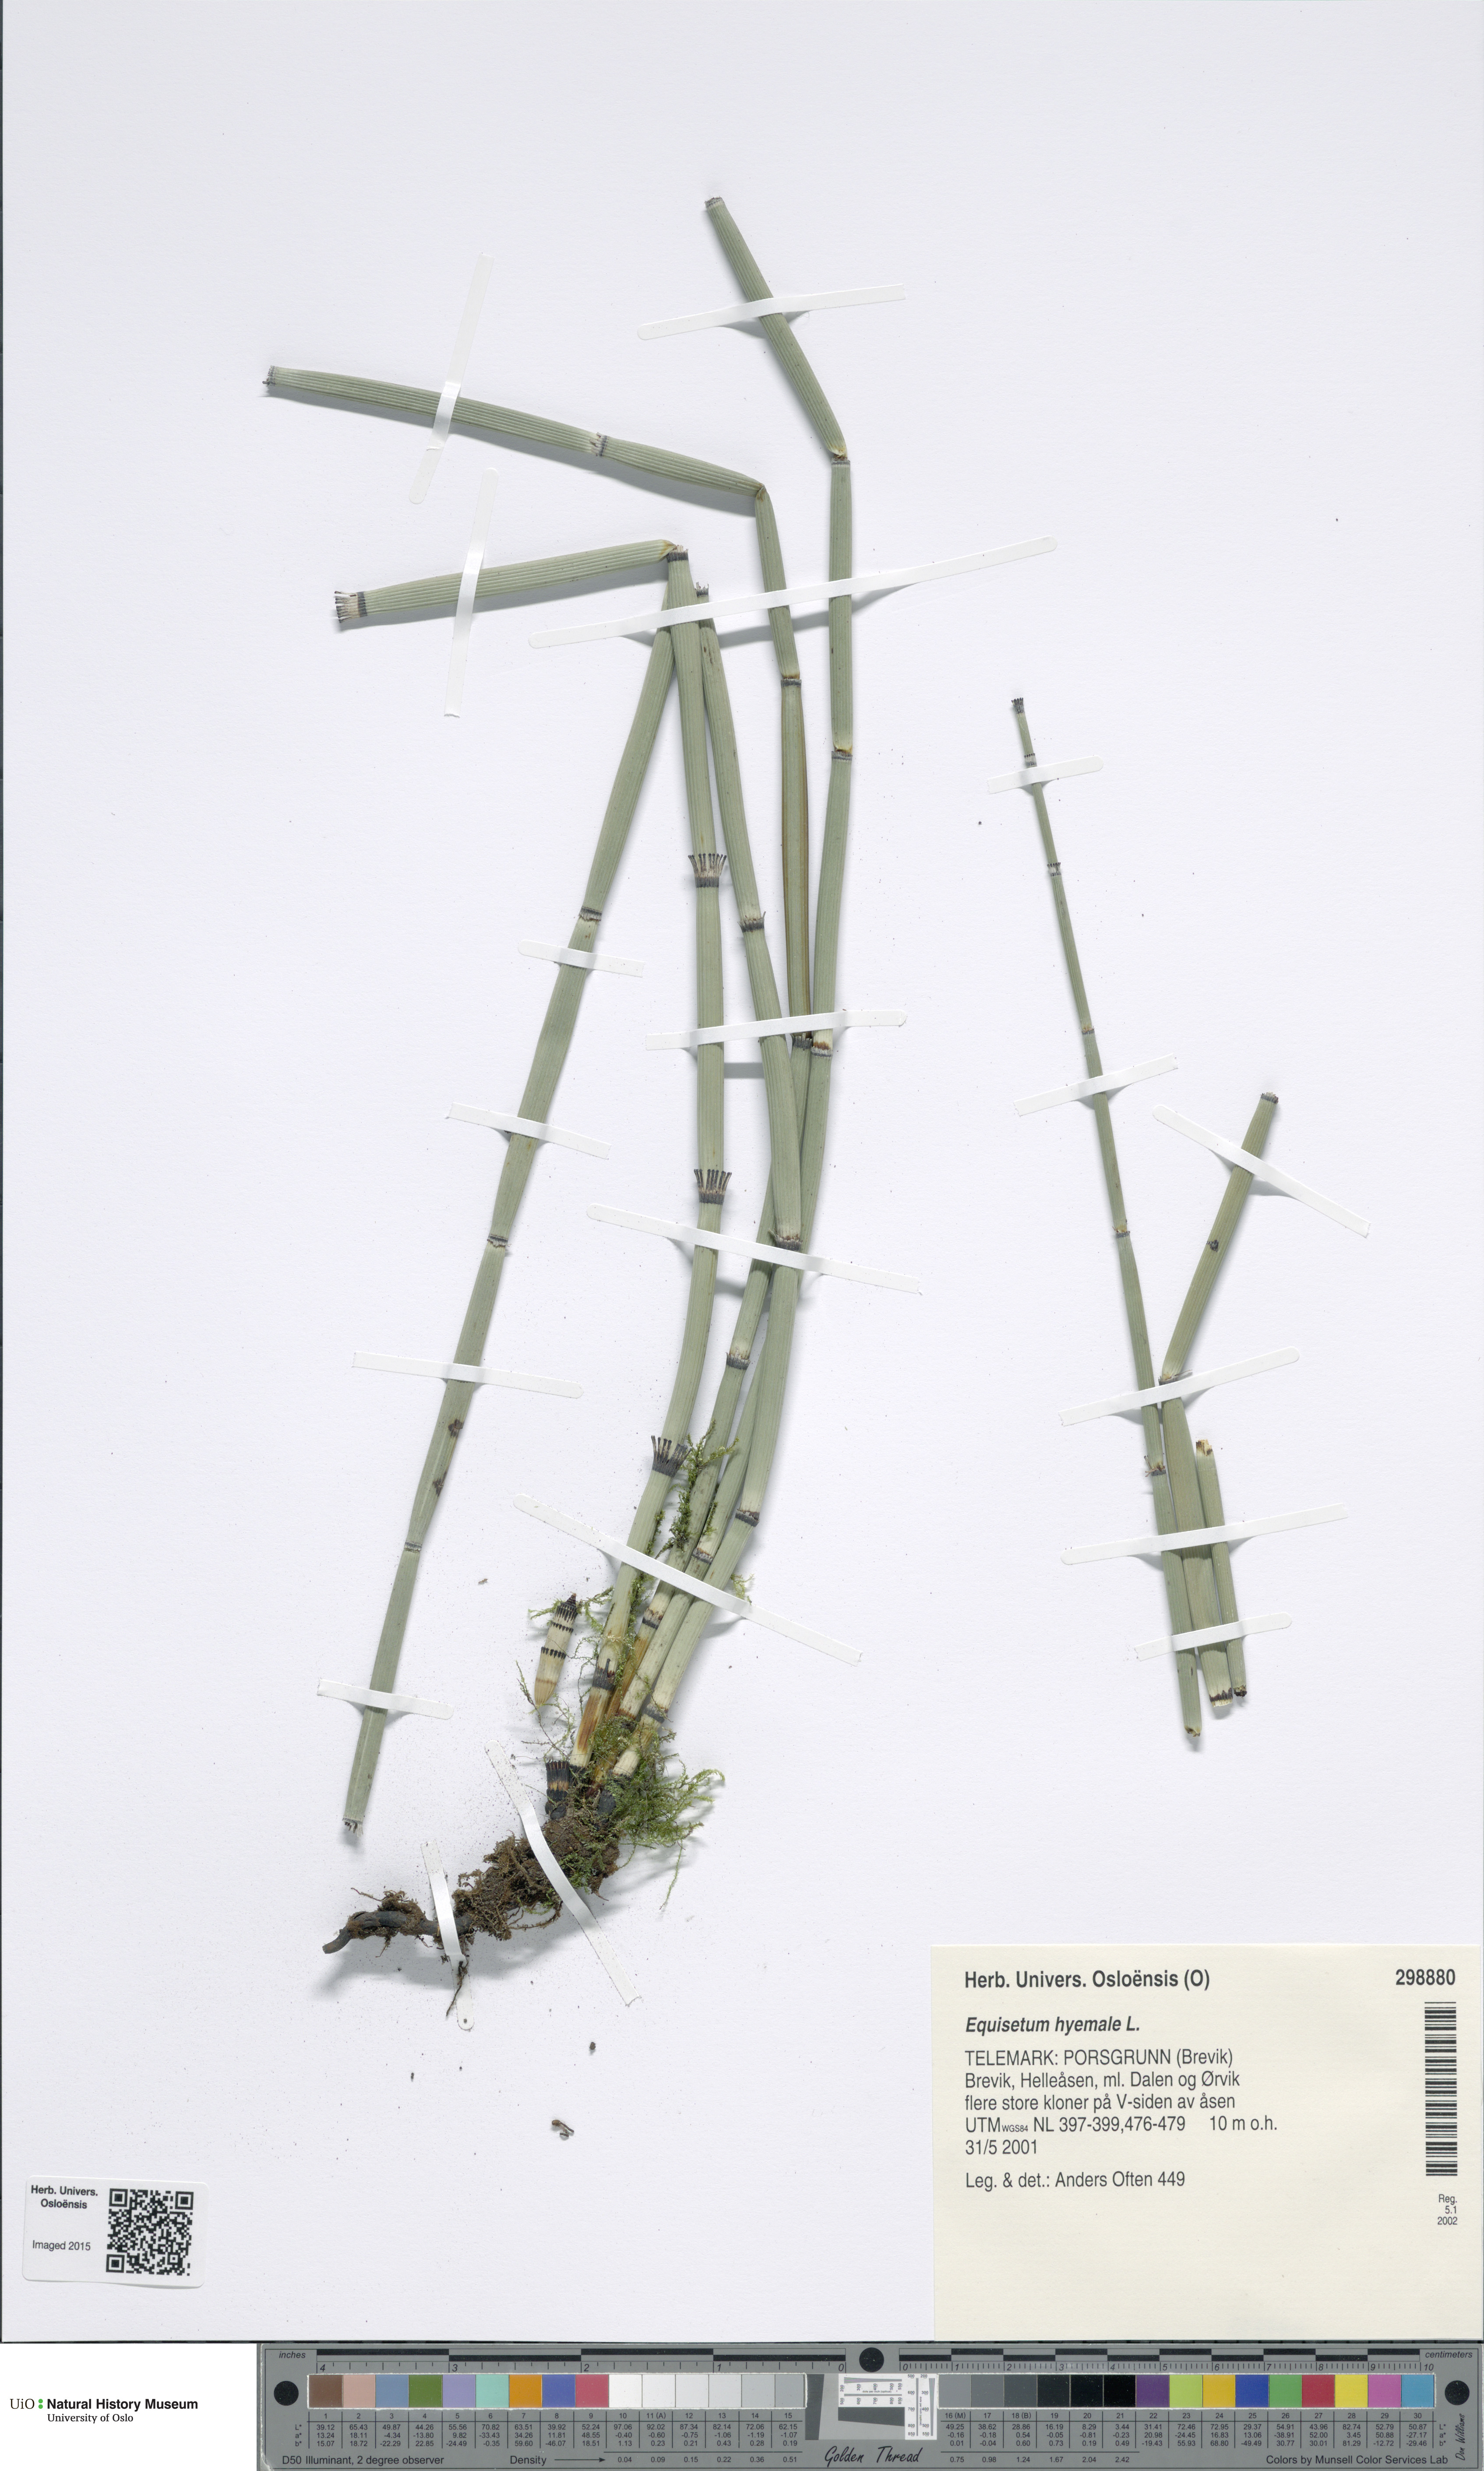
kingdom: Plantae
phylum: Tracheophyta
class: Polypodiopsida
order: Equisetales
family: Equisetaceae
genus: Equisetum
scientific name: Equisetum hyemale
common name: Rough horsetail
